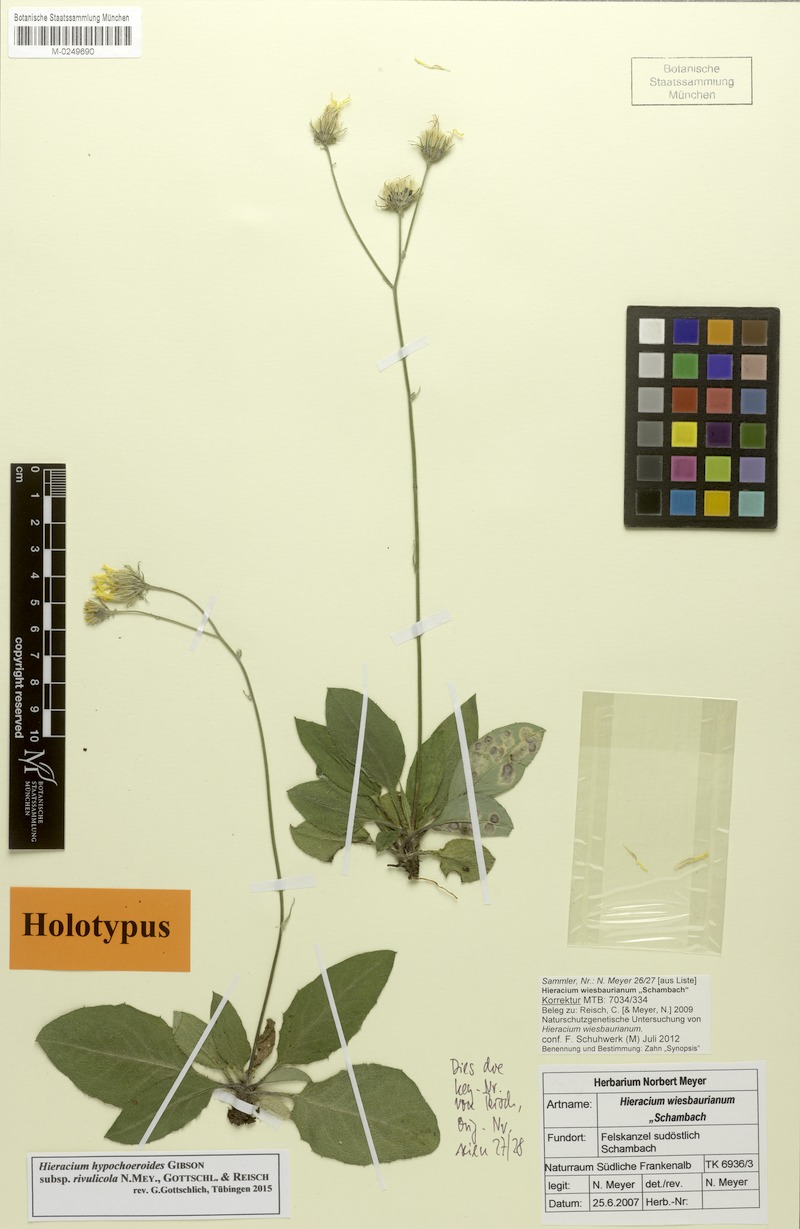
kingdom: Plantae
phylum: Tracheophyta
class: Magnoliopsida
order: Asterales
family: Asteraceae
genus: Hieracium
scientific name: Hieracium hypochoeroides
